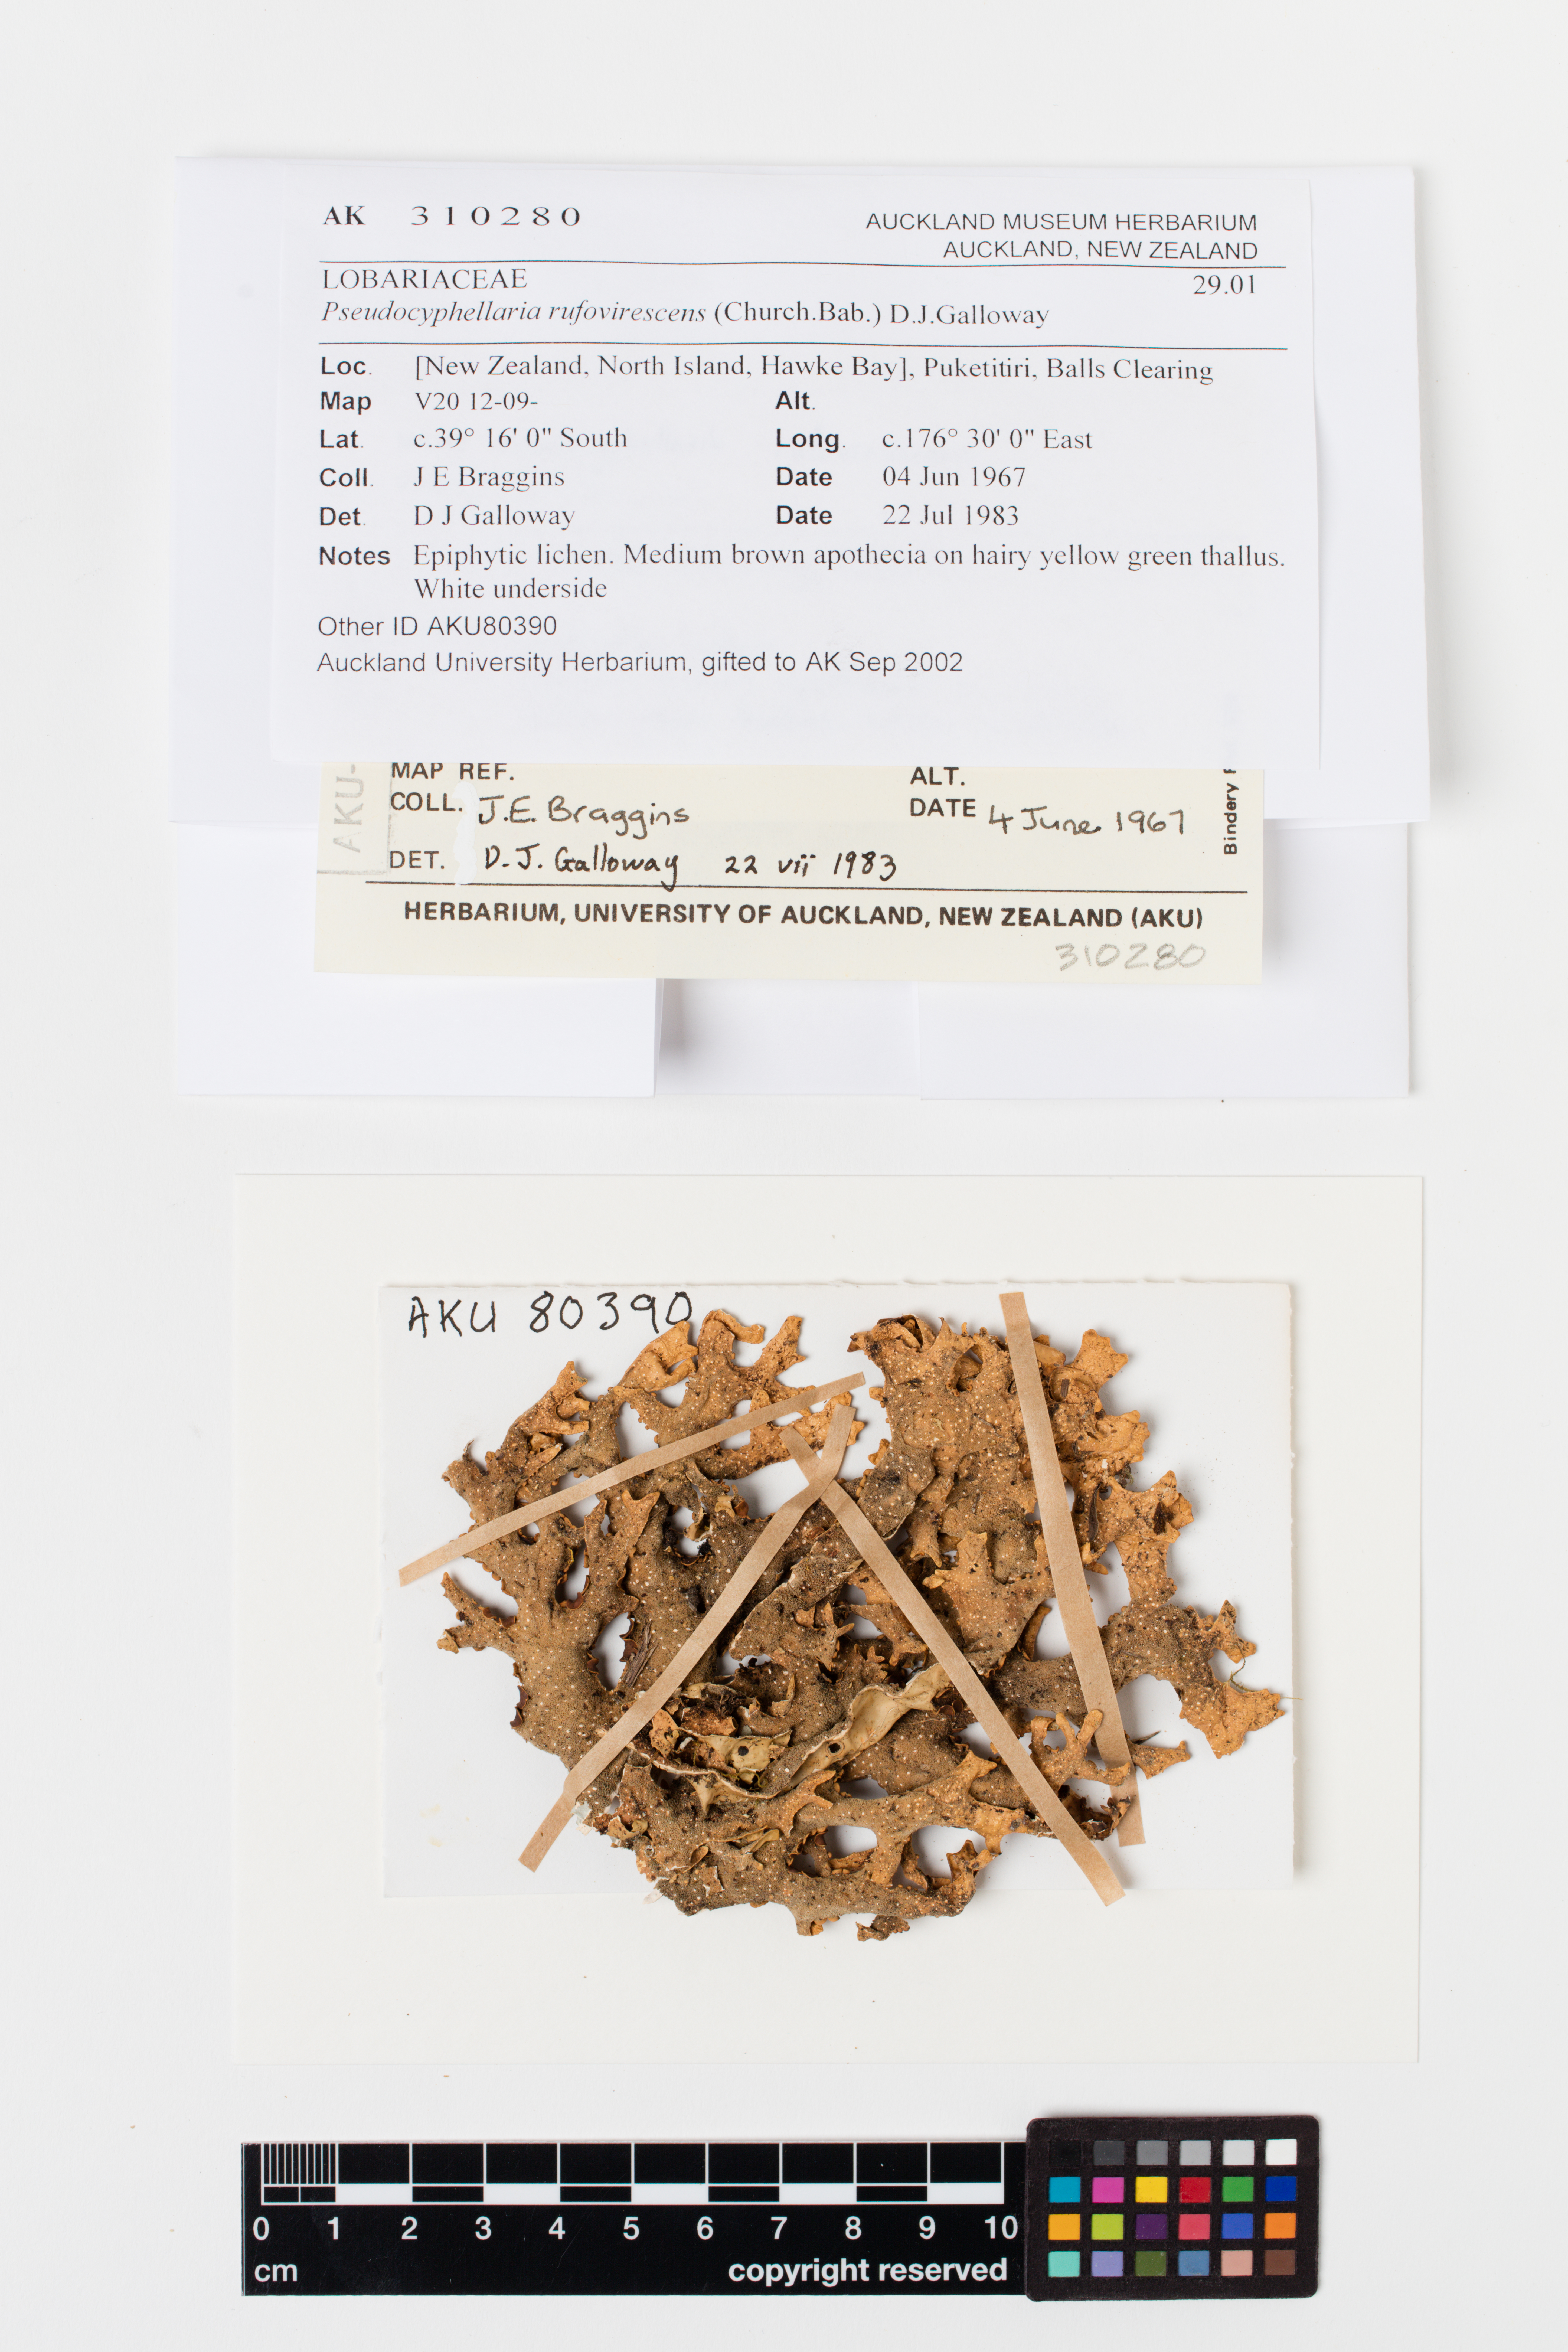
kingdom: Fungi
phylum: Ascomycota
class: Lecanoromycetes
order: Peltigerales
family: Lobariaceae
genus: Pseudocyphellaria
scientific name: Pseudocyphellaria rufovirescens
